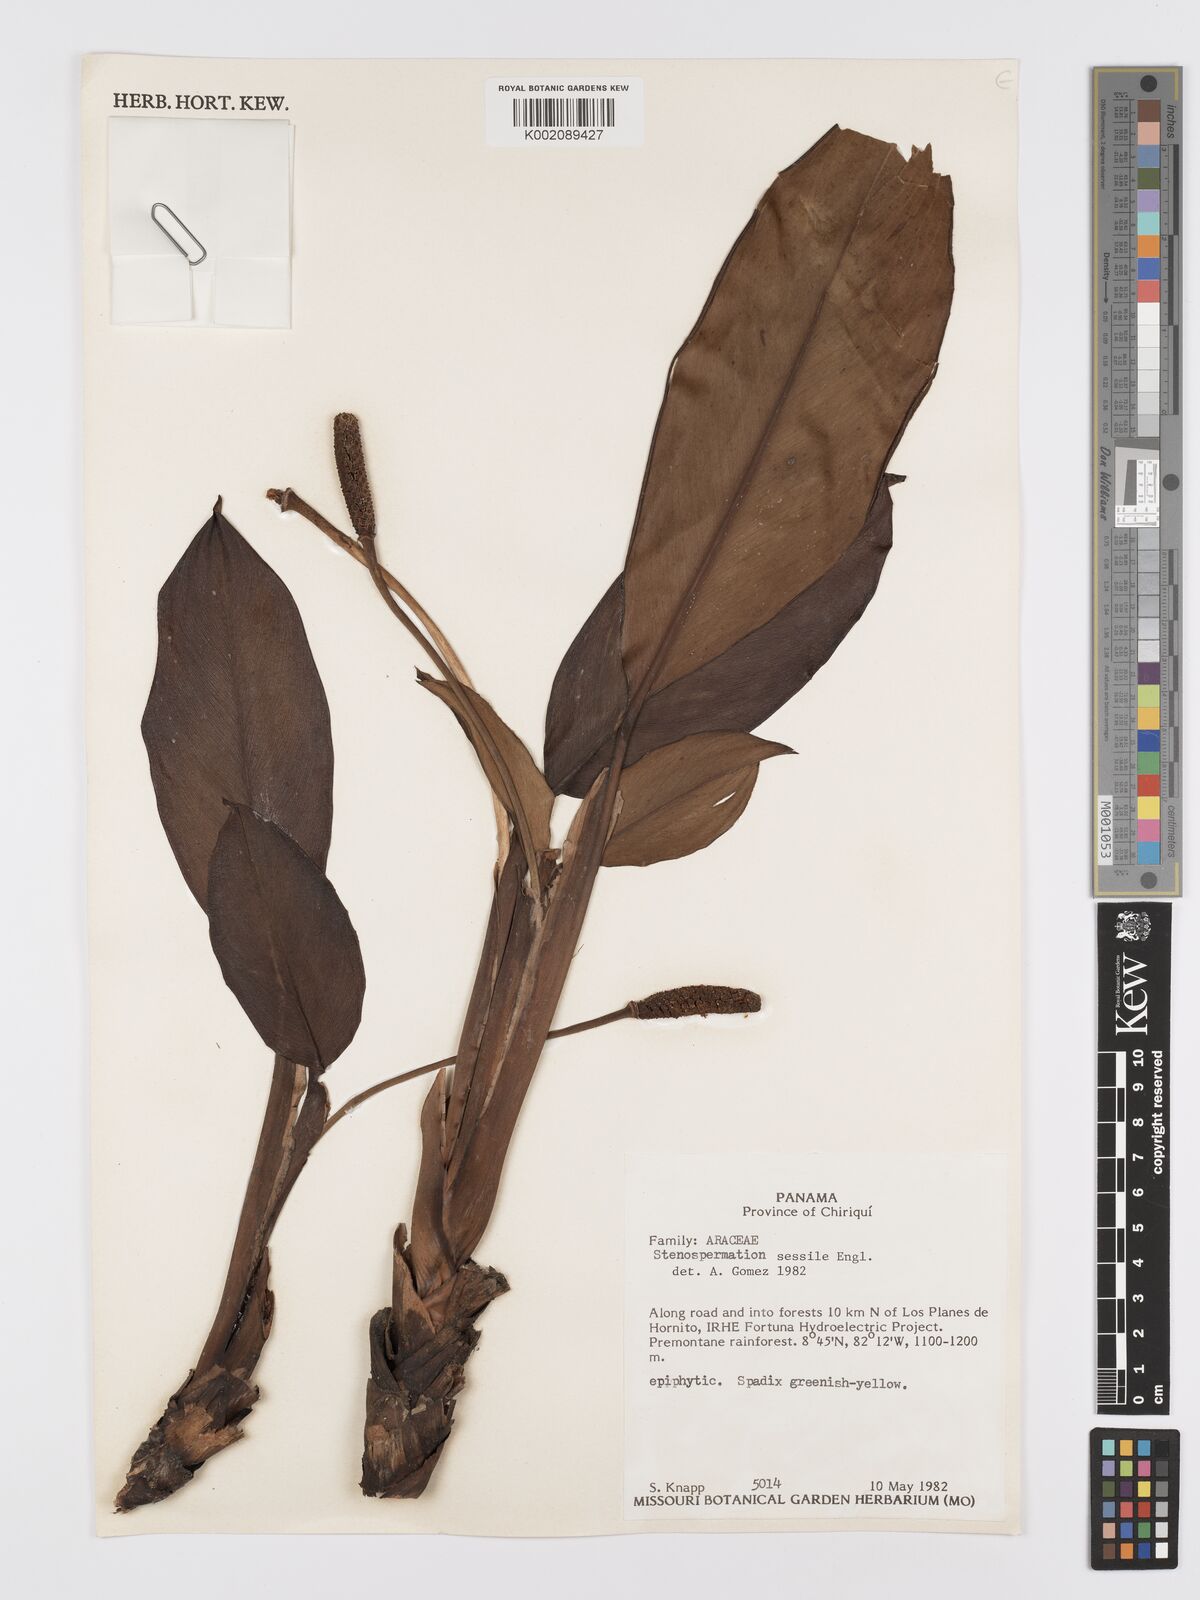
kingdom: Plantae
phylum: Tracheophyta
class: Liliopsida
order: Alismatales
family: Araceae
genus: Stenospermation
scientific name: Stenospermation sessile
